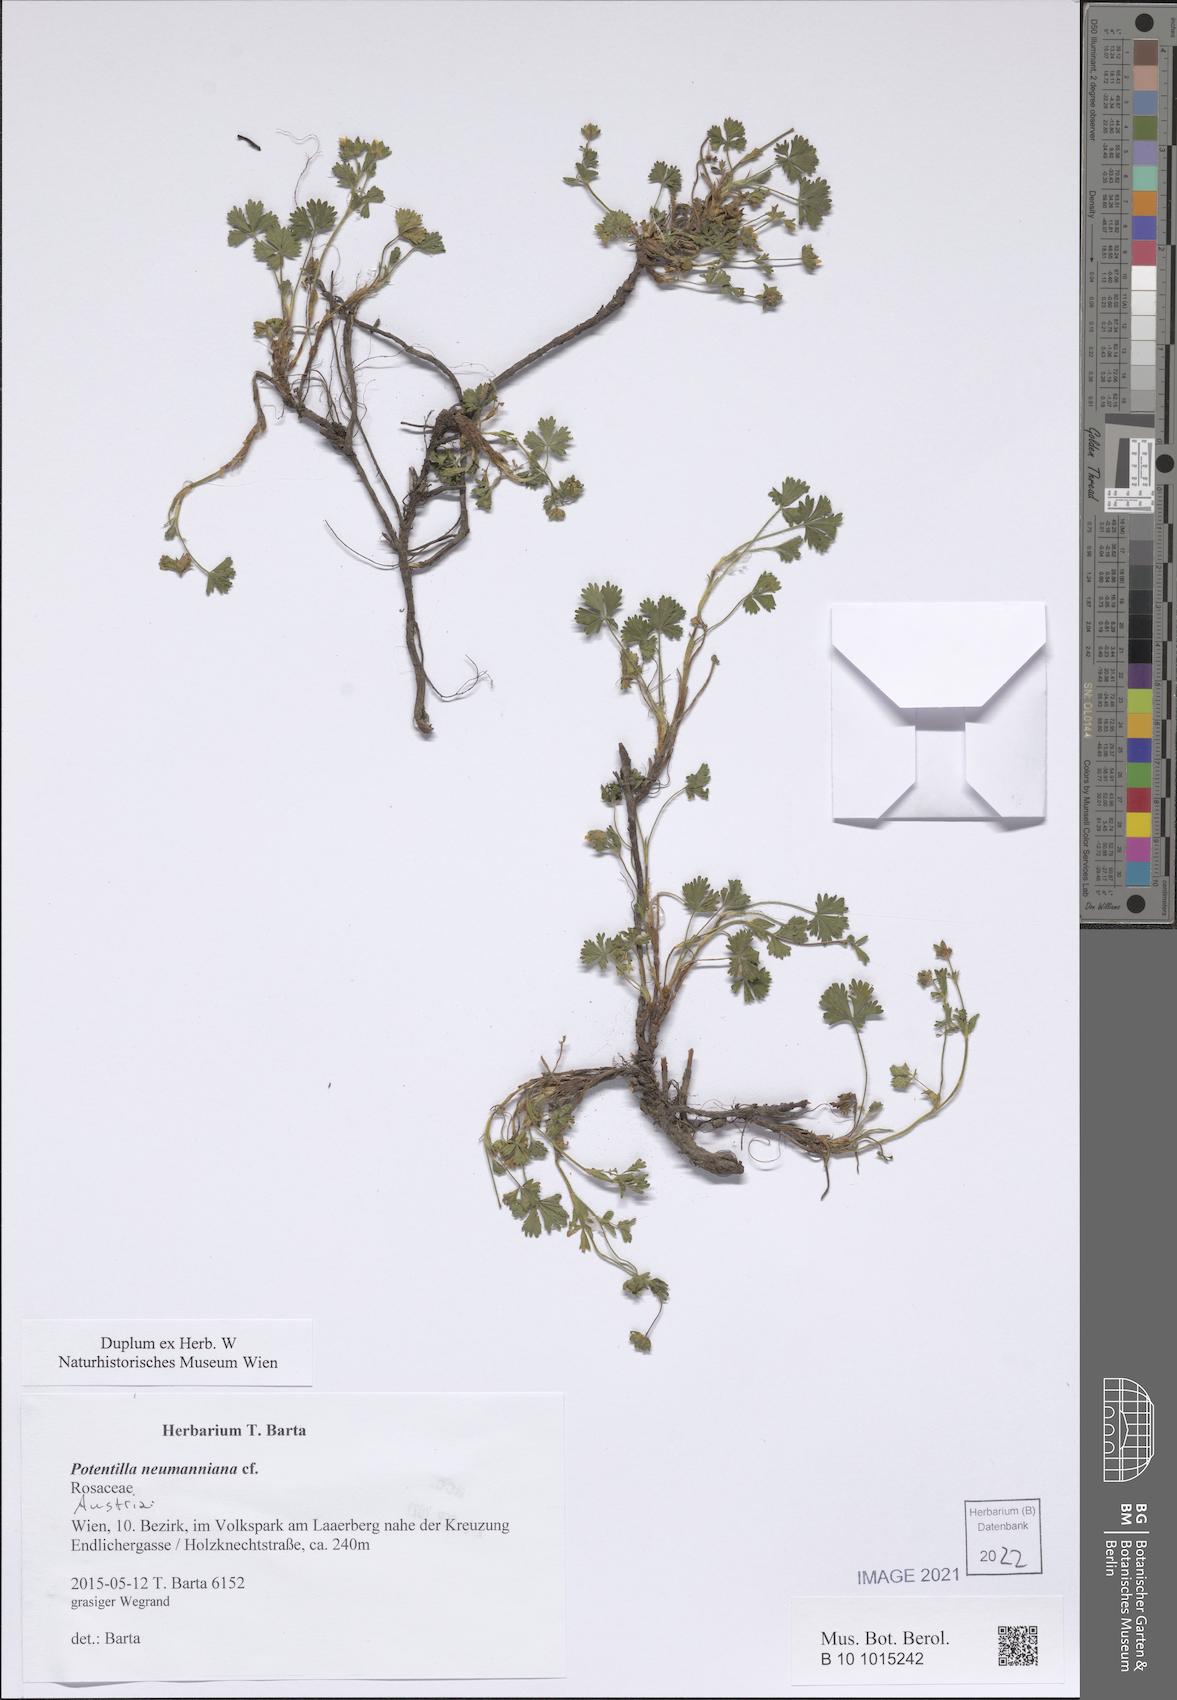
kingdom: Plantae
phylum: Tracheophyta
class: Magnoliopsida
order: Rosales
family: Rosaceae
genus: Potentilla
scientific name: Potentilla verna
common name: Spring cinquefoil
